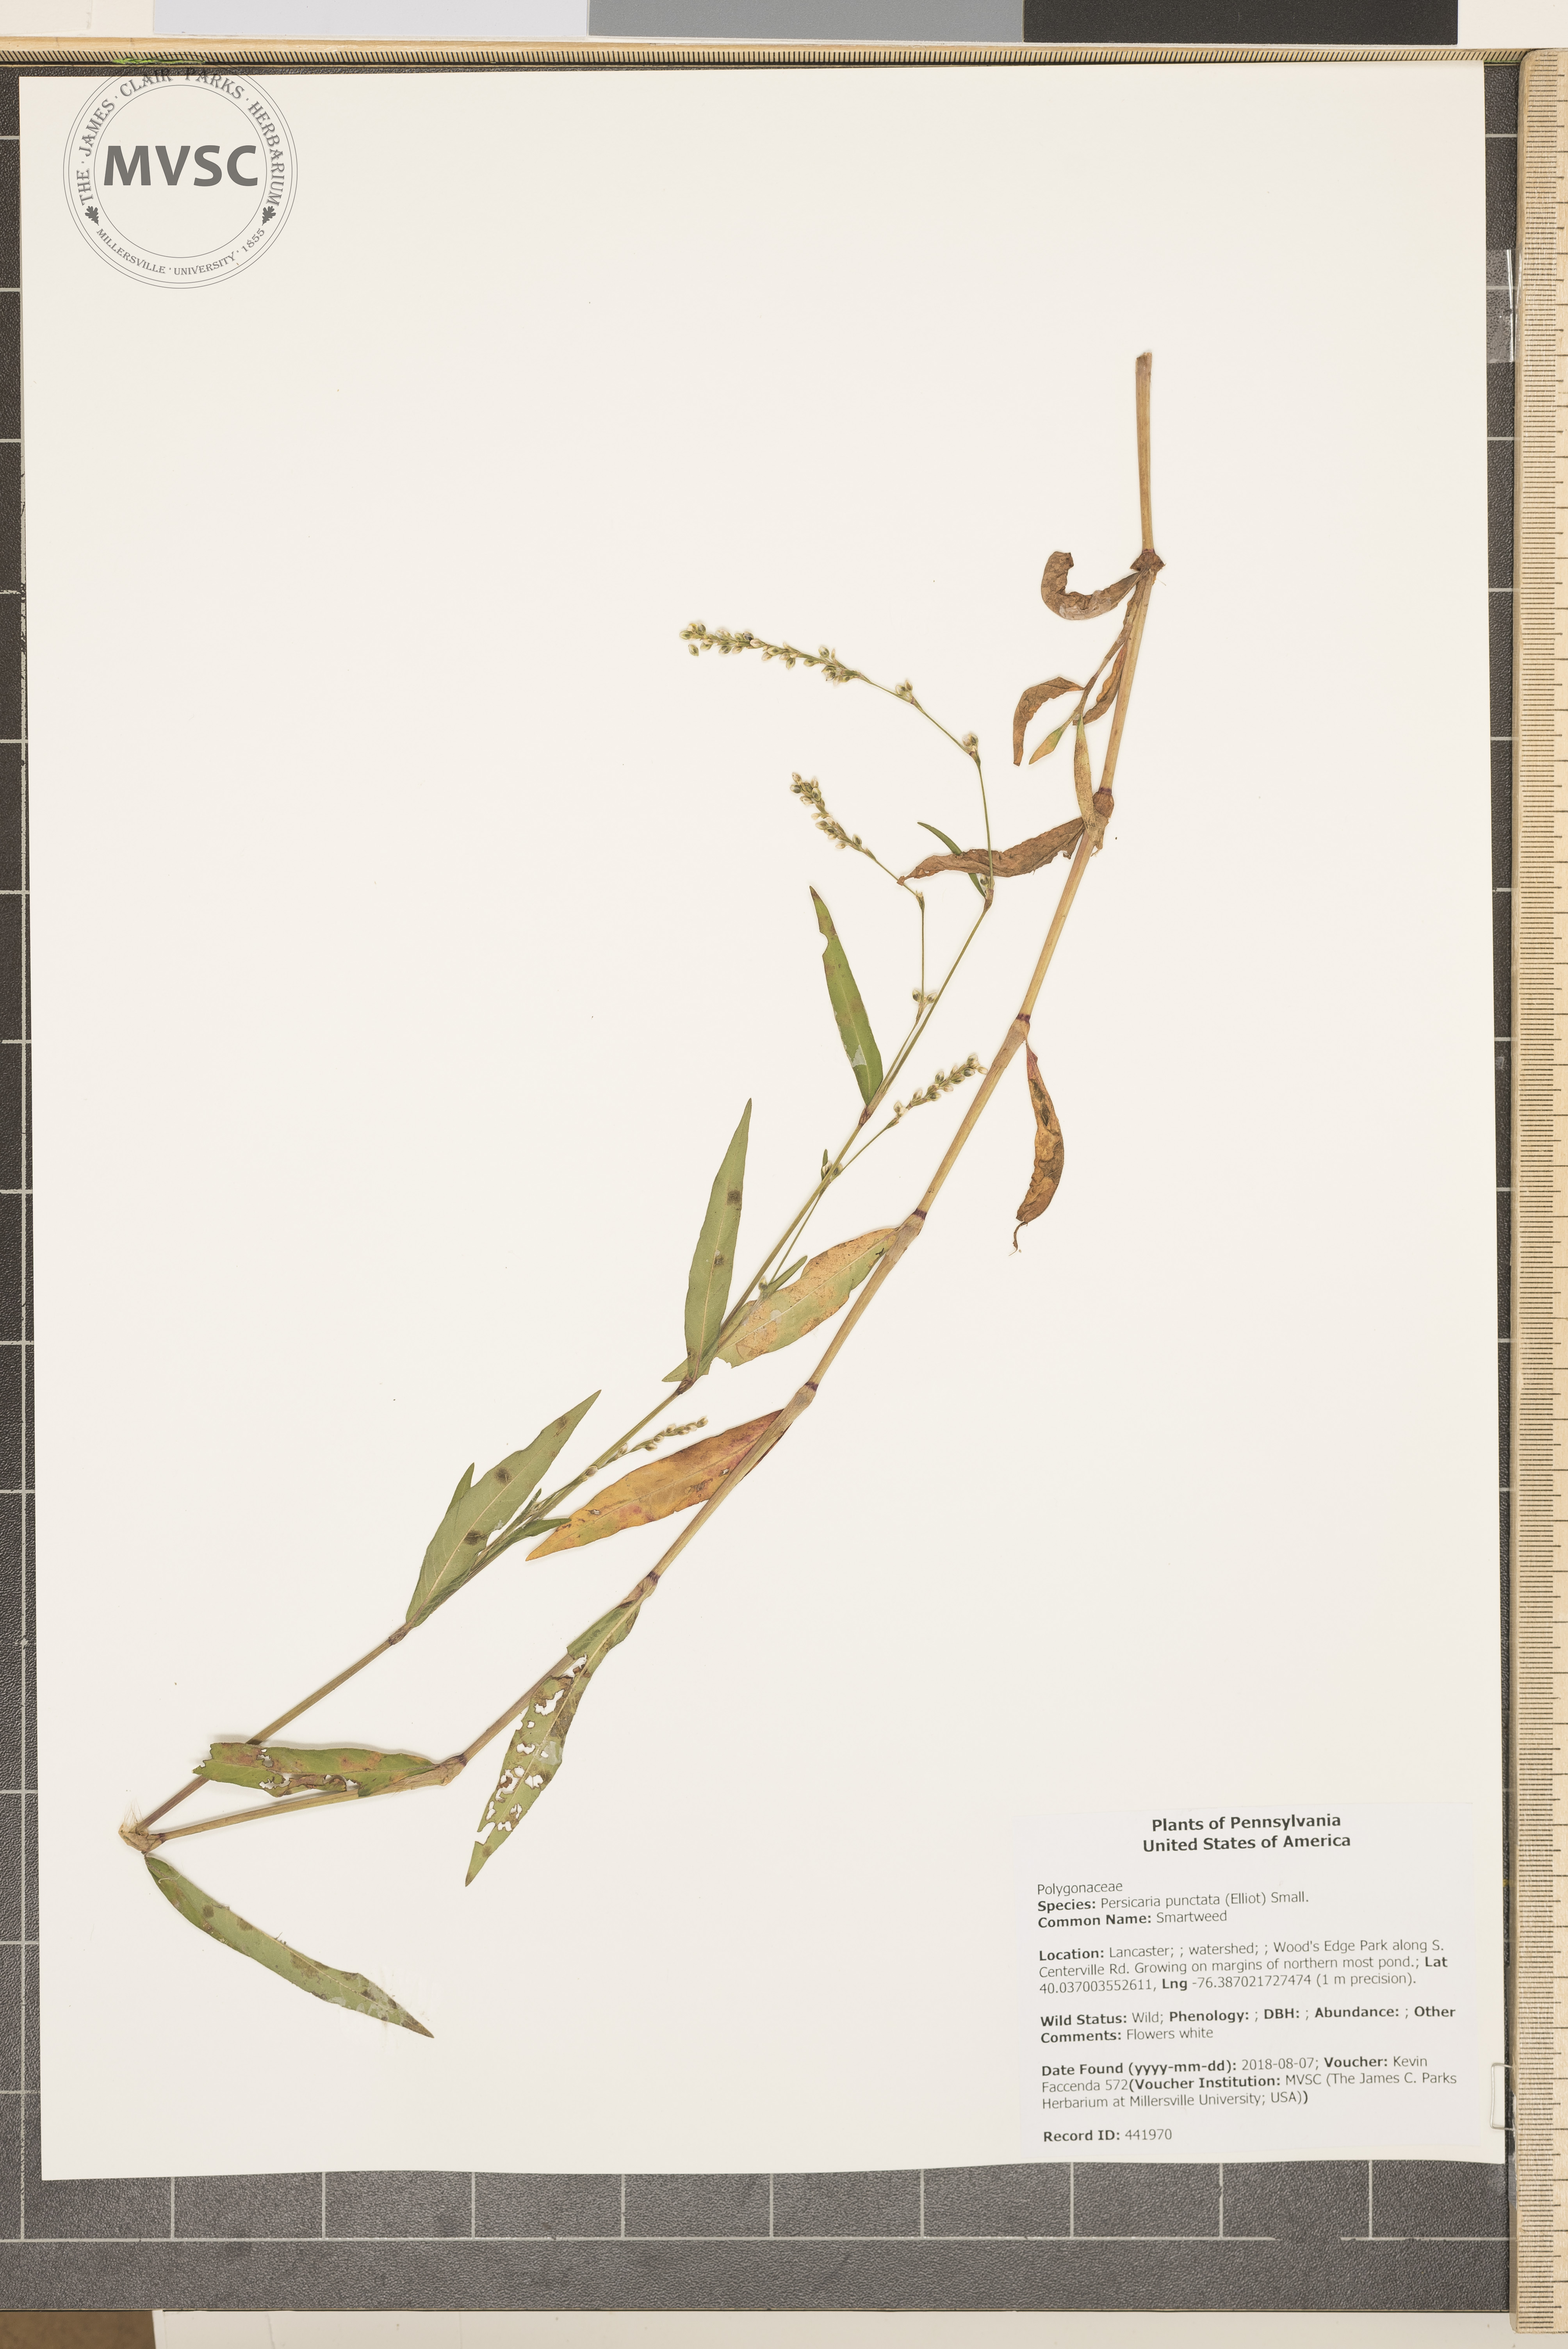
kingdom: Plantae
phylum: Tracheophyta
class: Magnoliopsida
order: Caryophyllales
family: Polygonaceae
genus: Persicaria
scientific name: Persicaria punctata
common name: Smartweed
